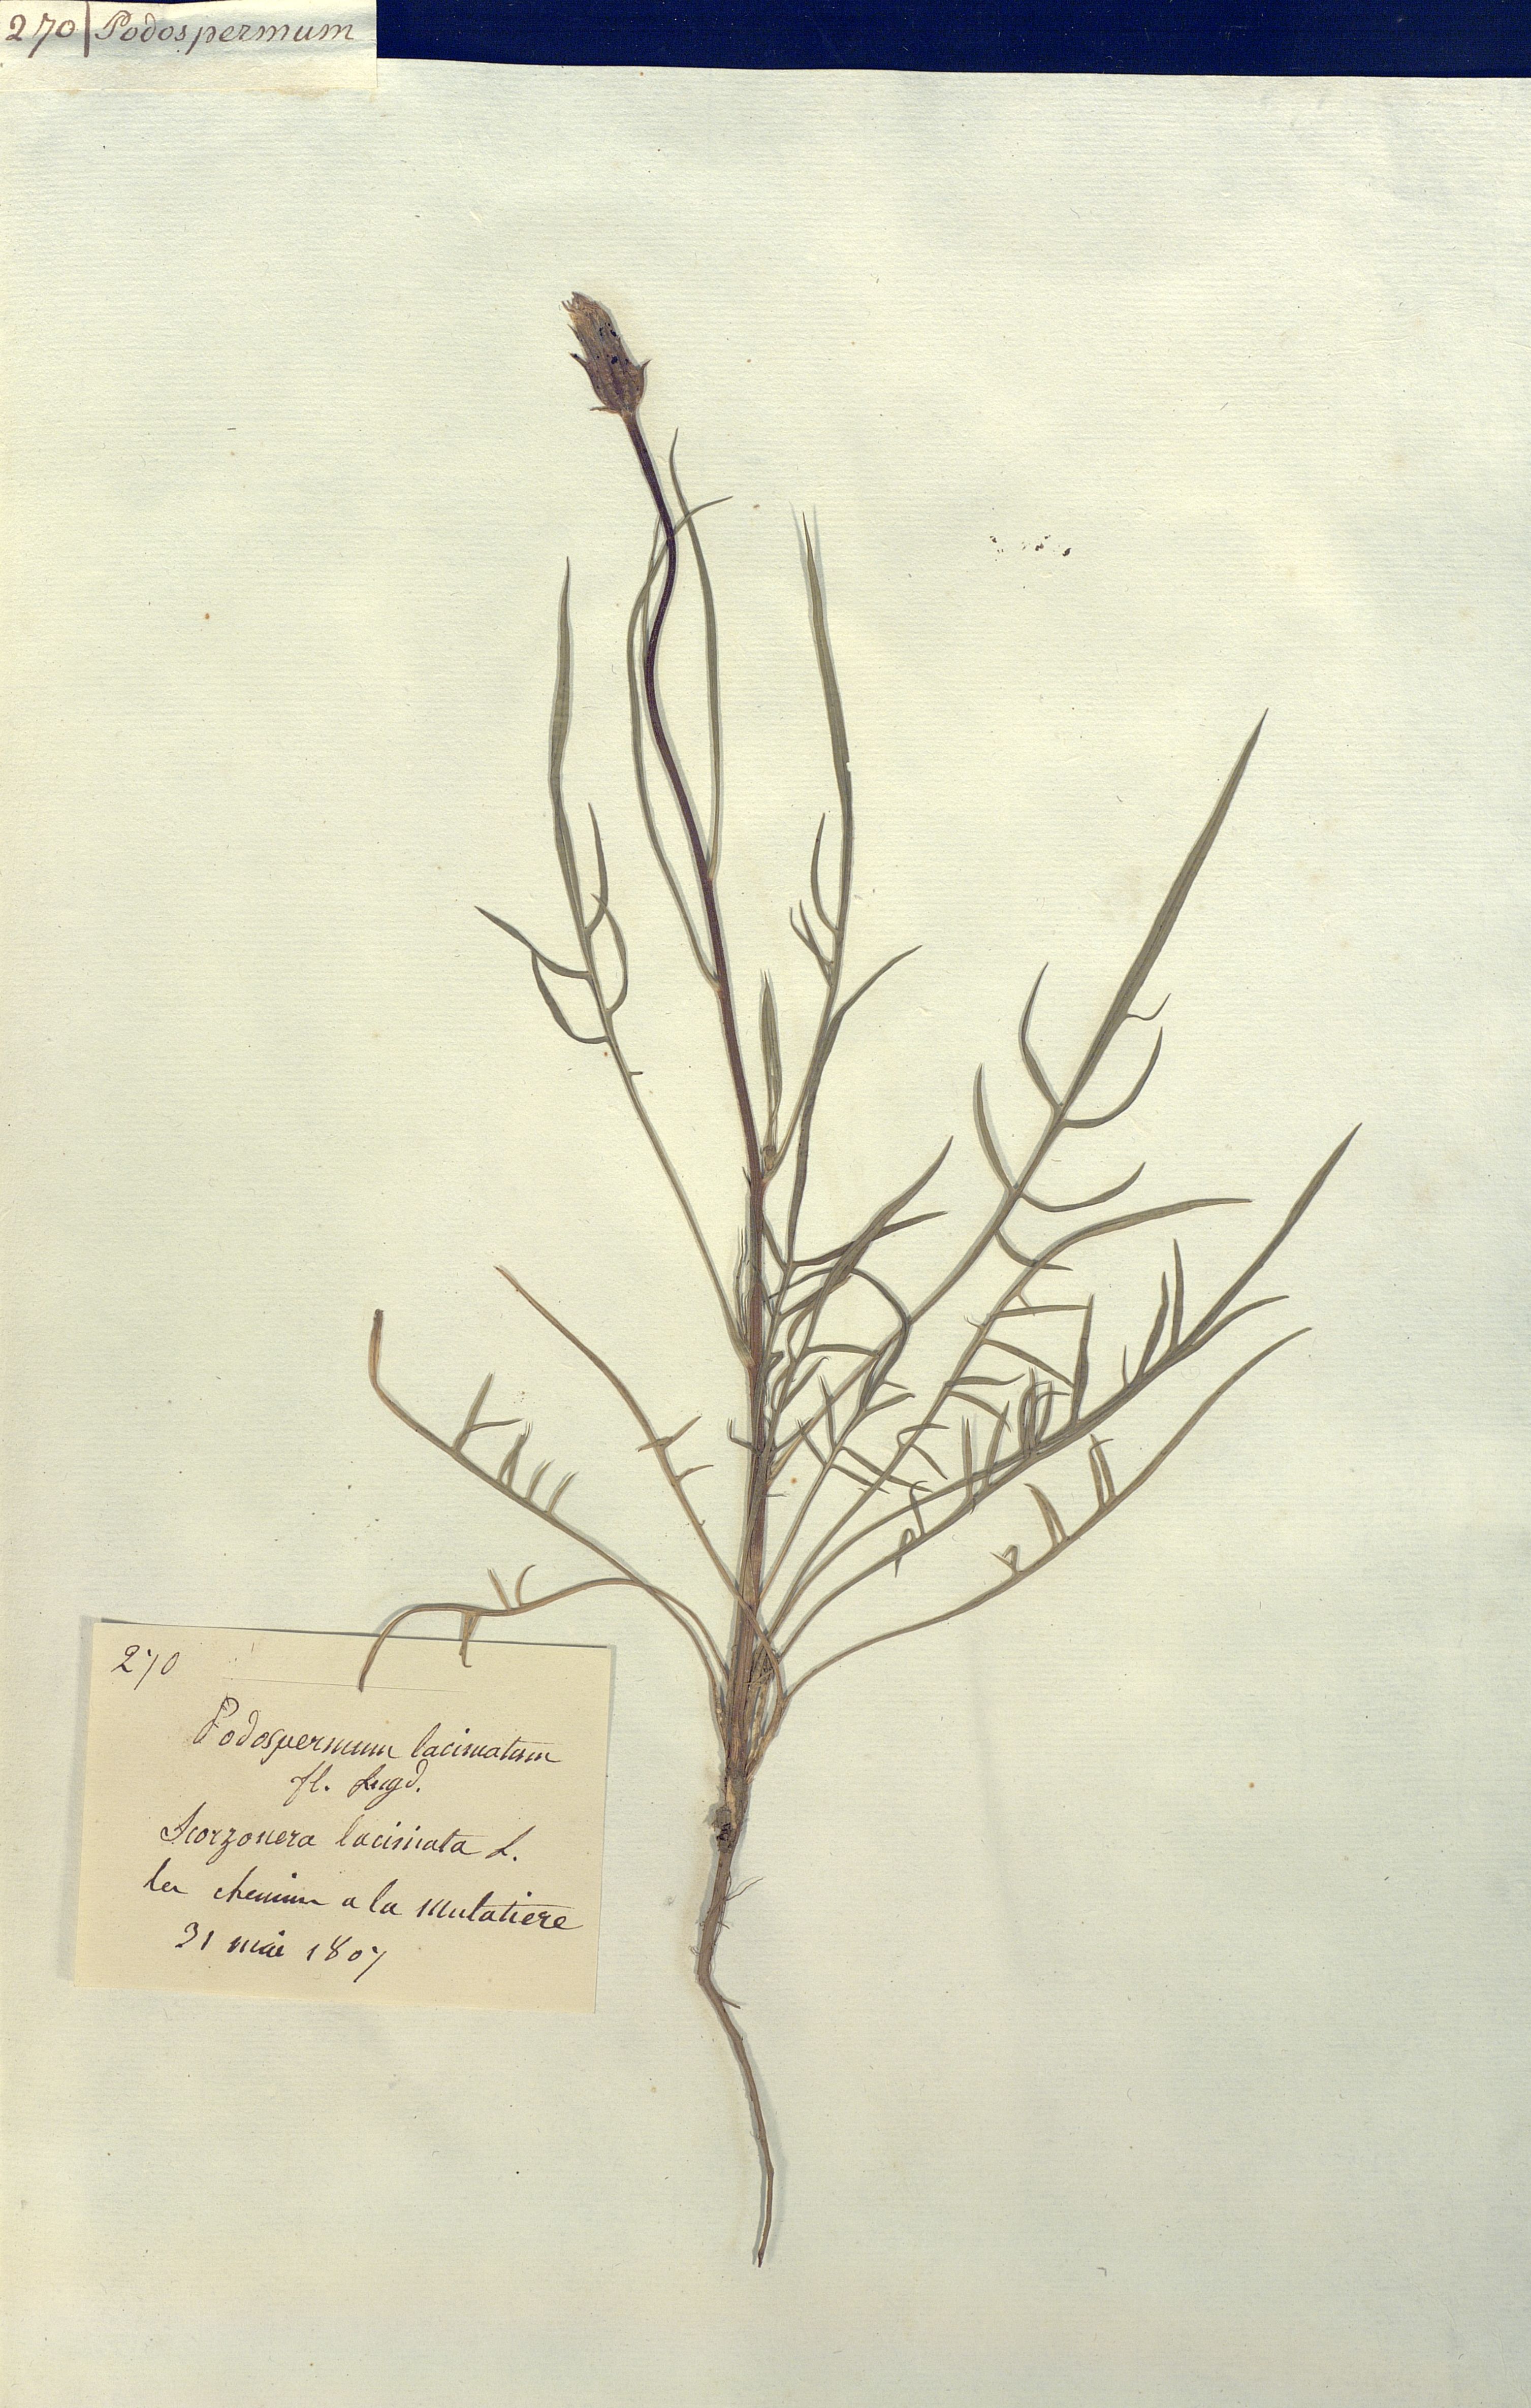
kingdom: Plantae
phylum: Tracheophyta
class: Magnoliopsida
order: Asterales
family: Asteraceae
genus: Scorzonera
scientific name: Scorzonera laciniata
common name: Cutleaf vipergrass
